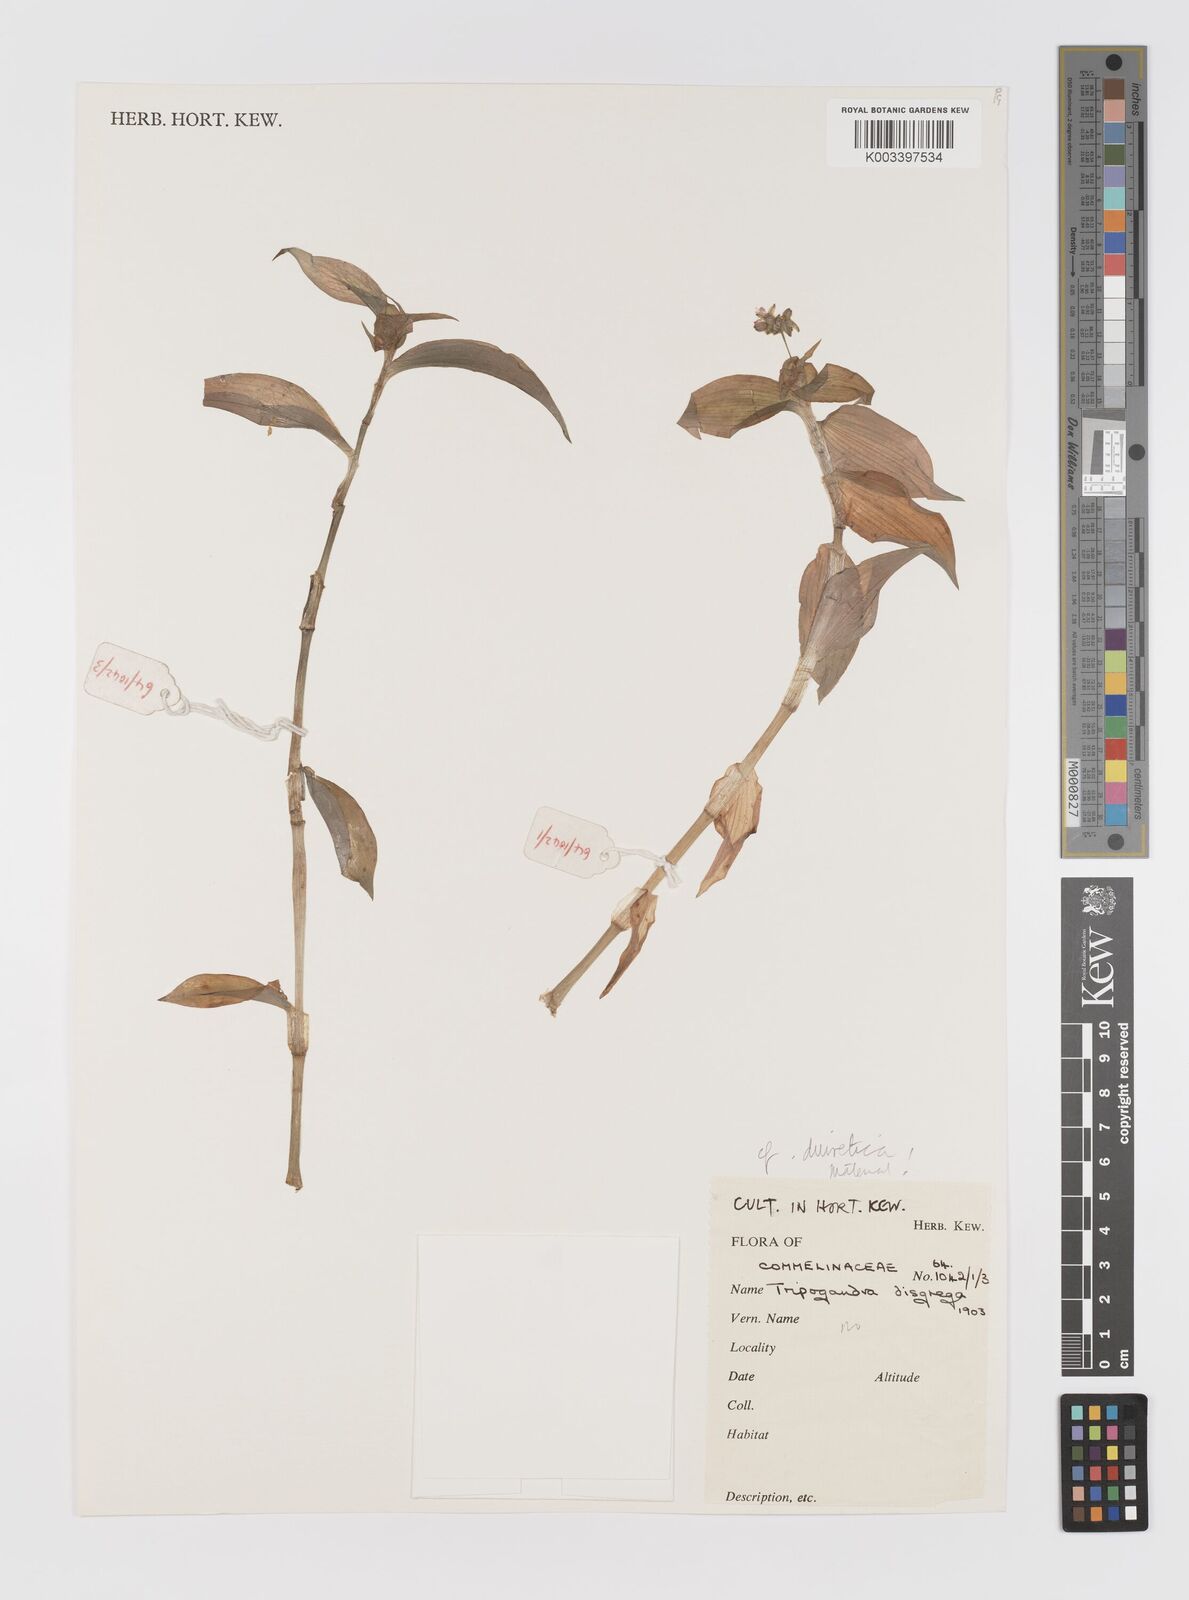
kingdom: Plantae
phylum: Tracheophyta
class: Liliopsida
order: Commelinales
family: Commelinaceae
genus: Callisia
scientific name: Callisia diuretica
